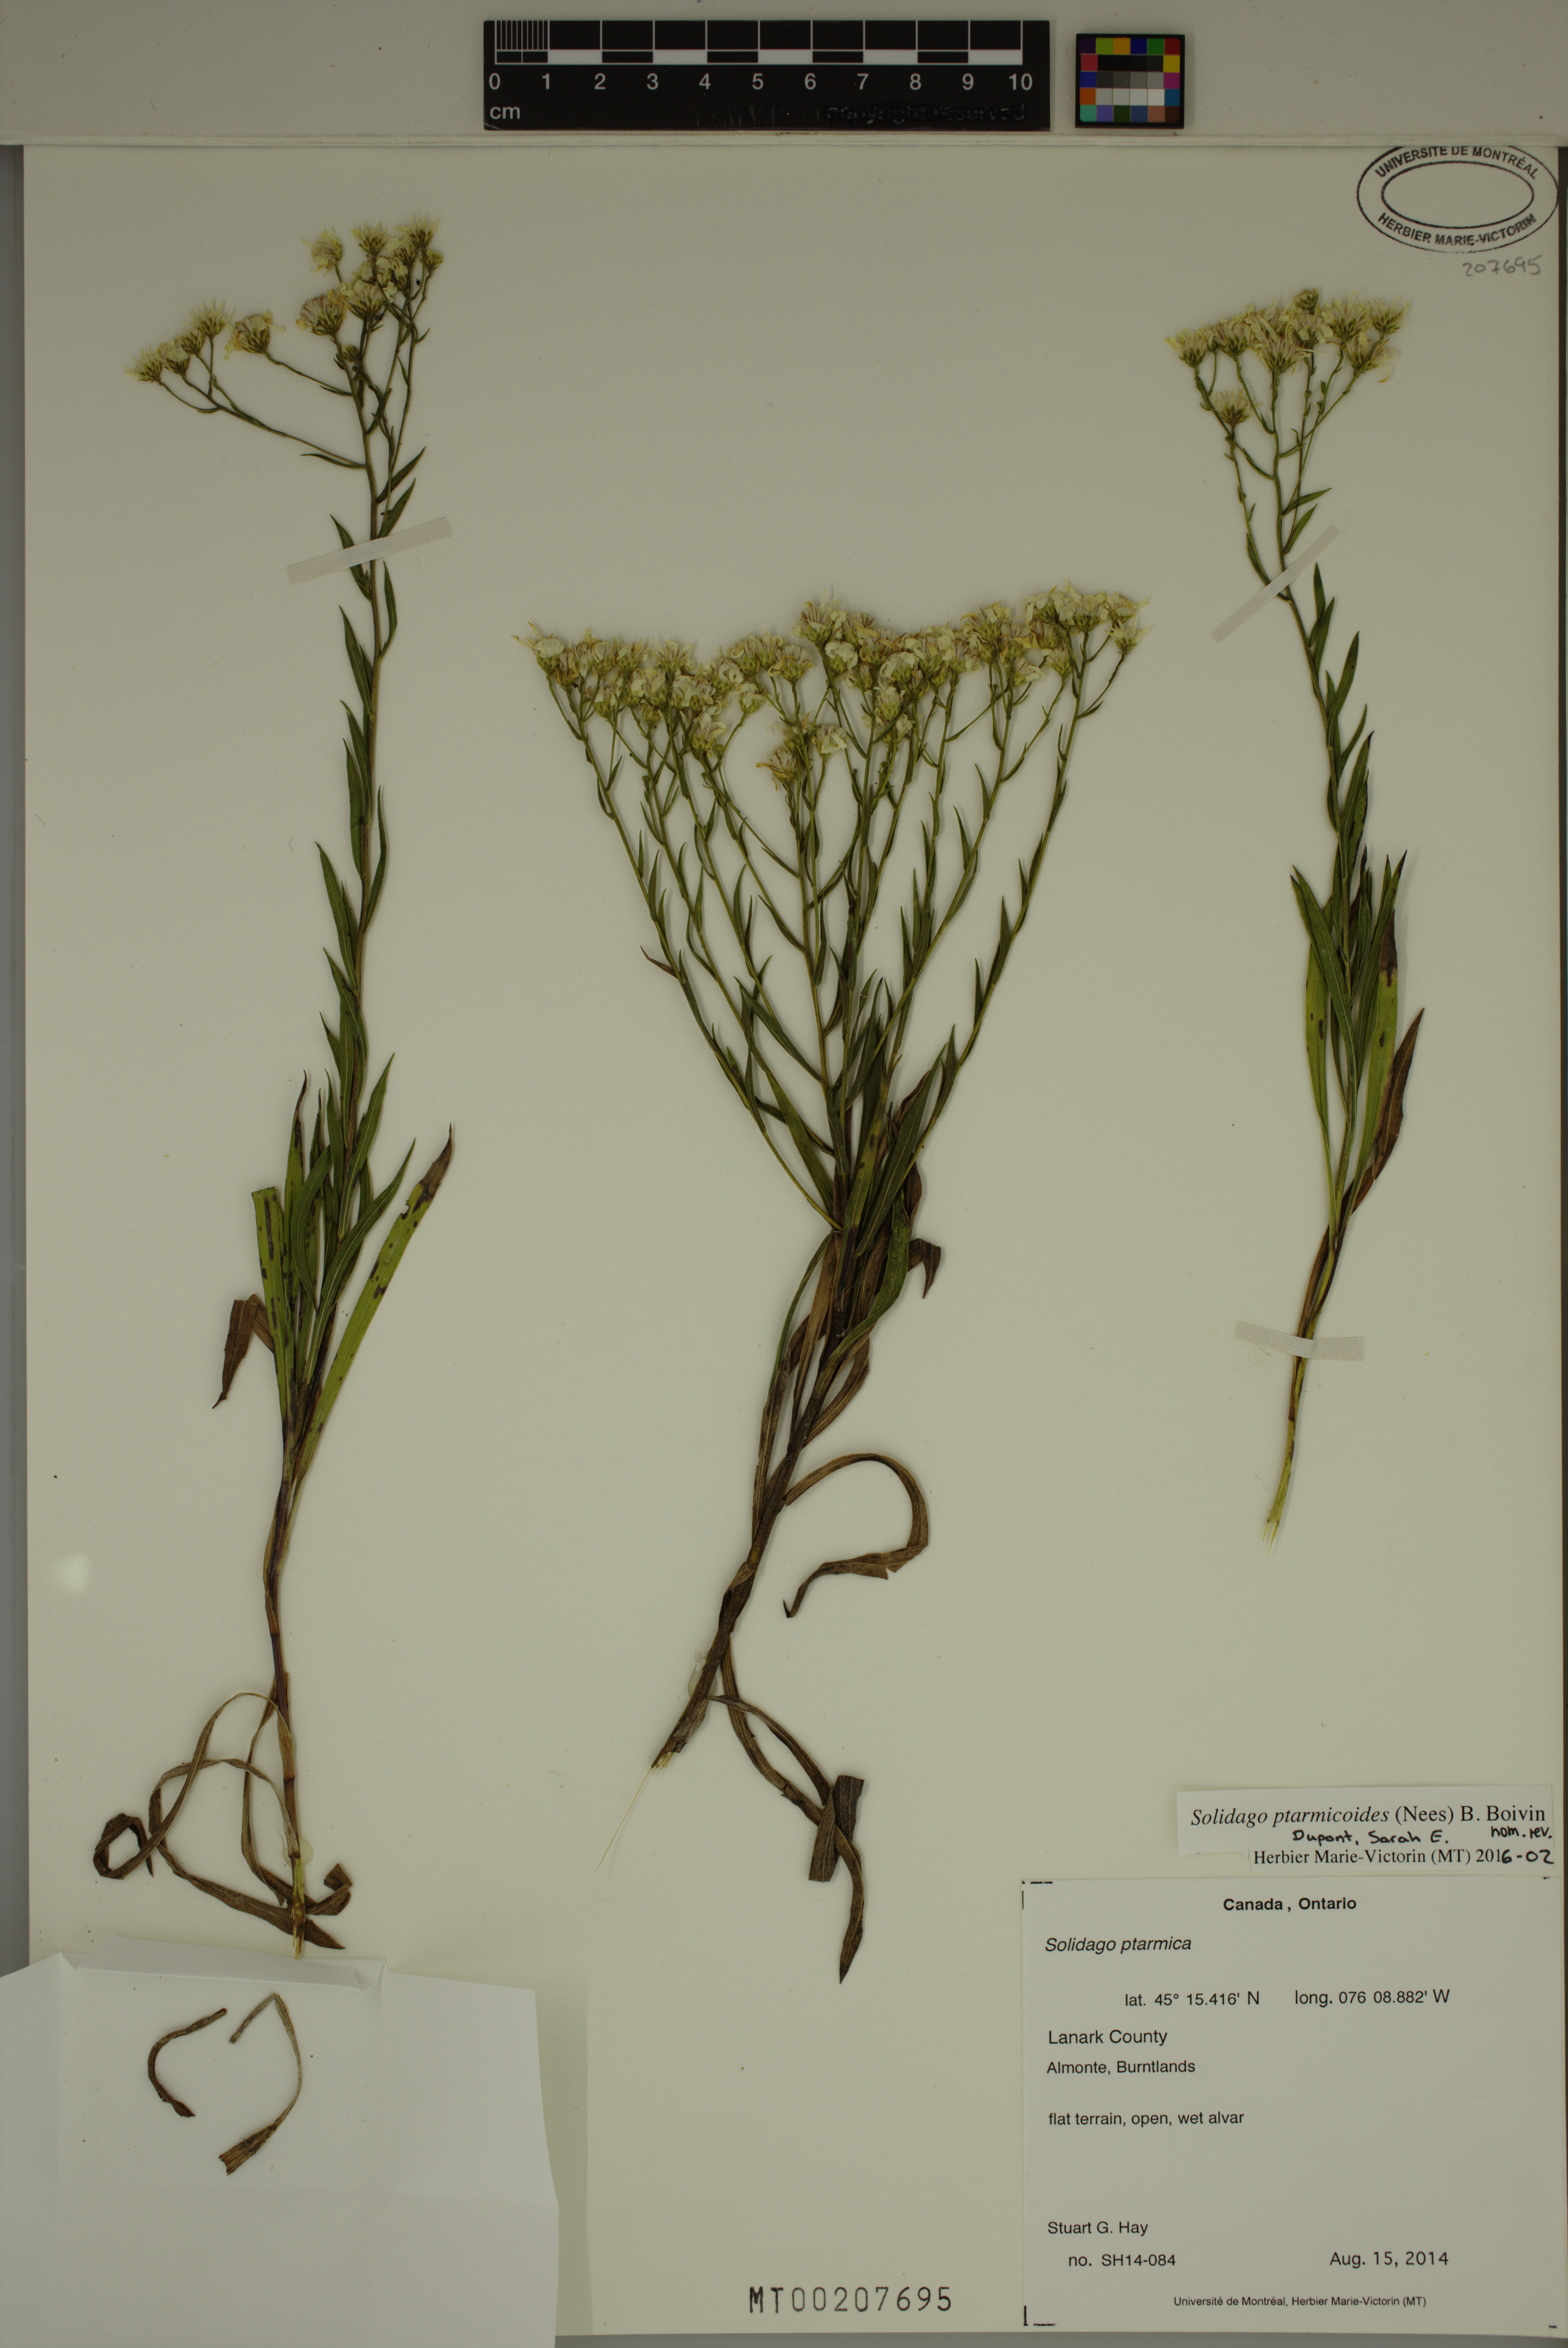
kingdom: Plantae
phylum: Tracheophyta
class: Magnoliopsida
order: Asterales
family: Asteraceae
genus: Solidago
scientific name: Solidago ptarmicoides
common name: White flat-top goldenrod
